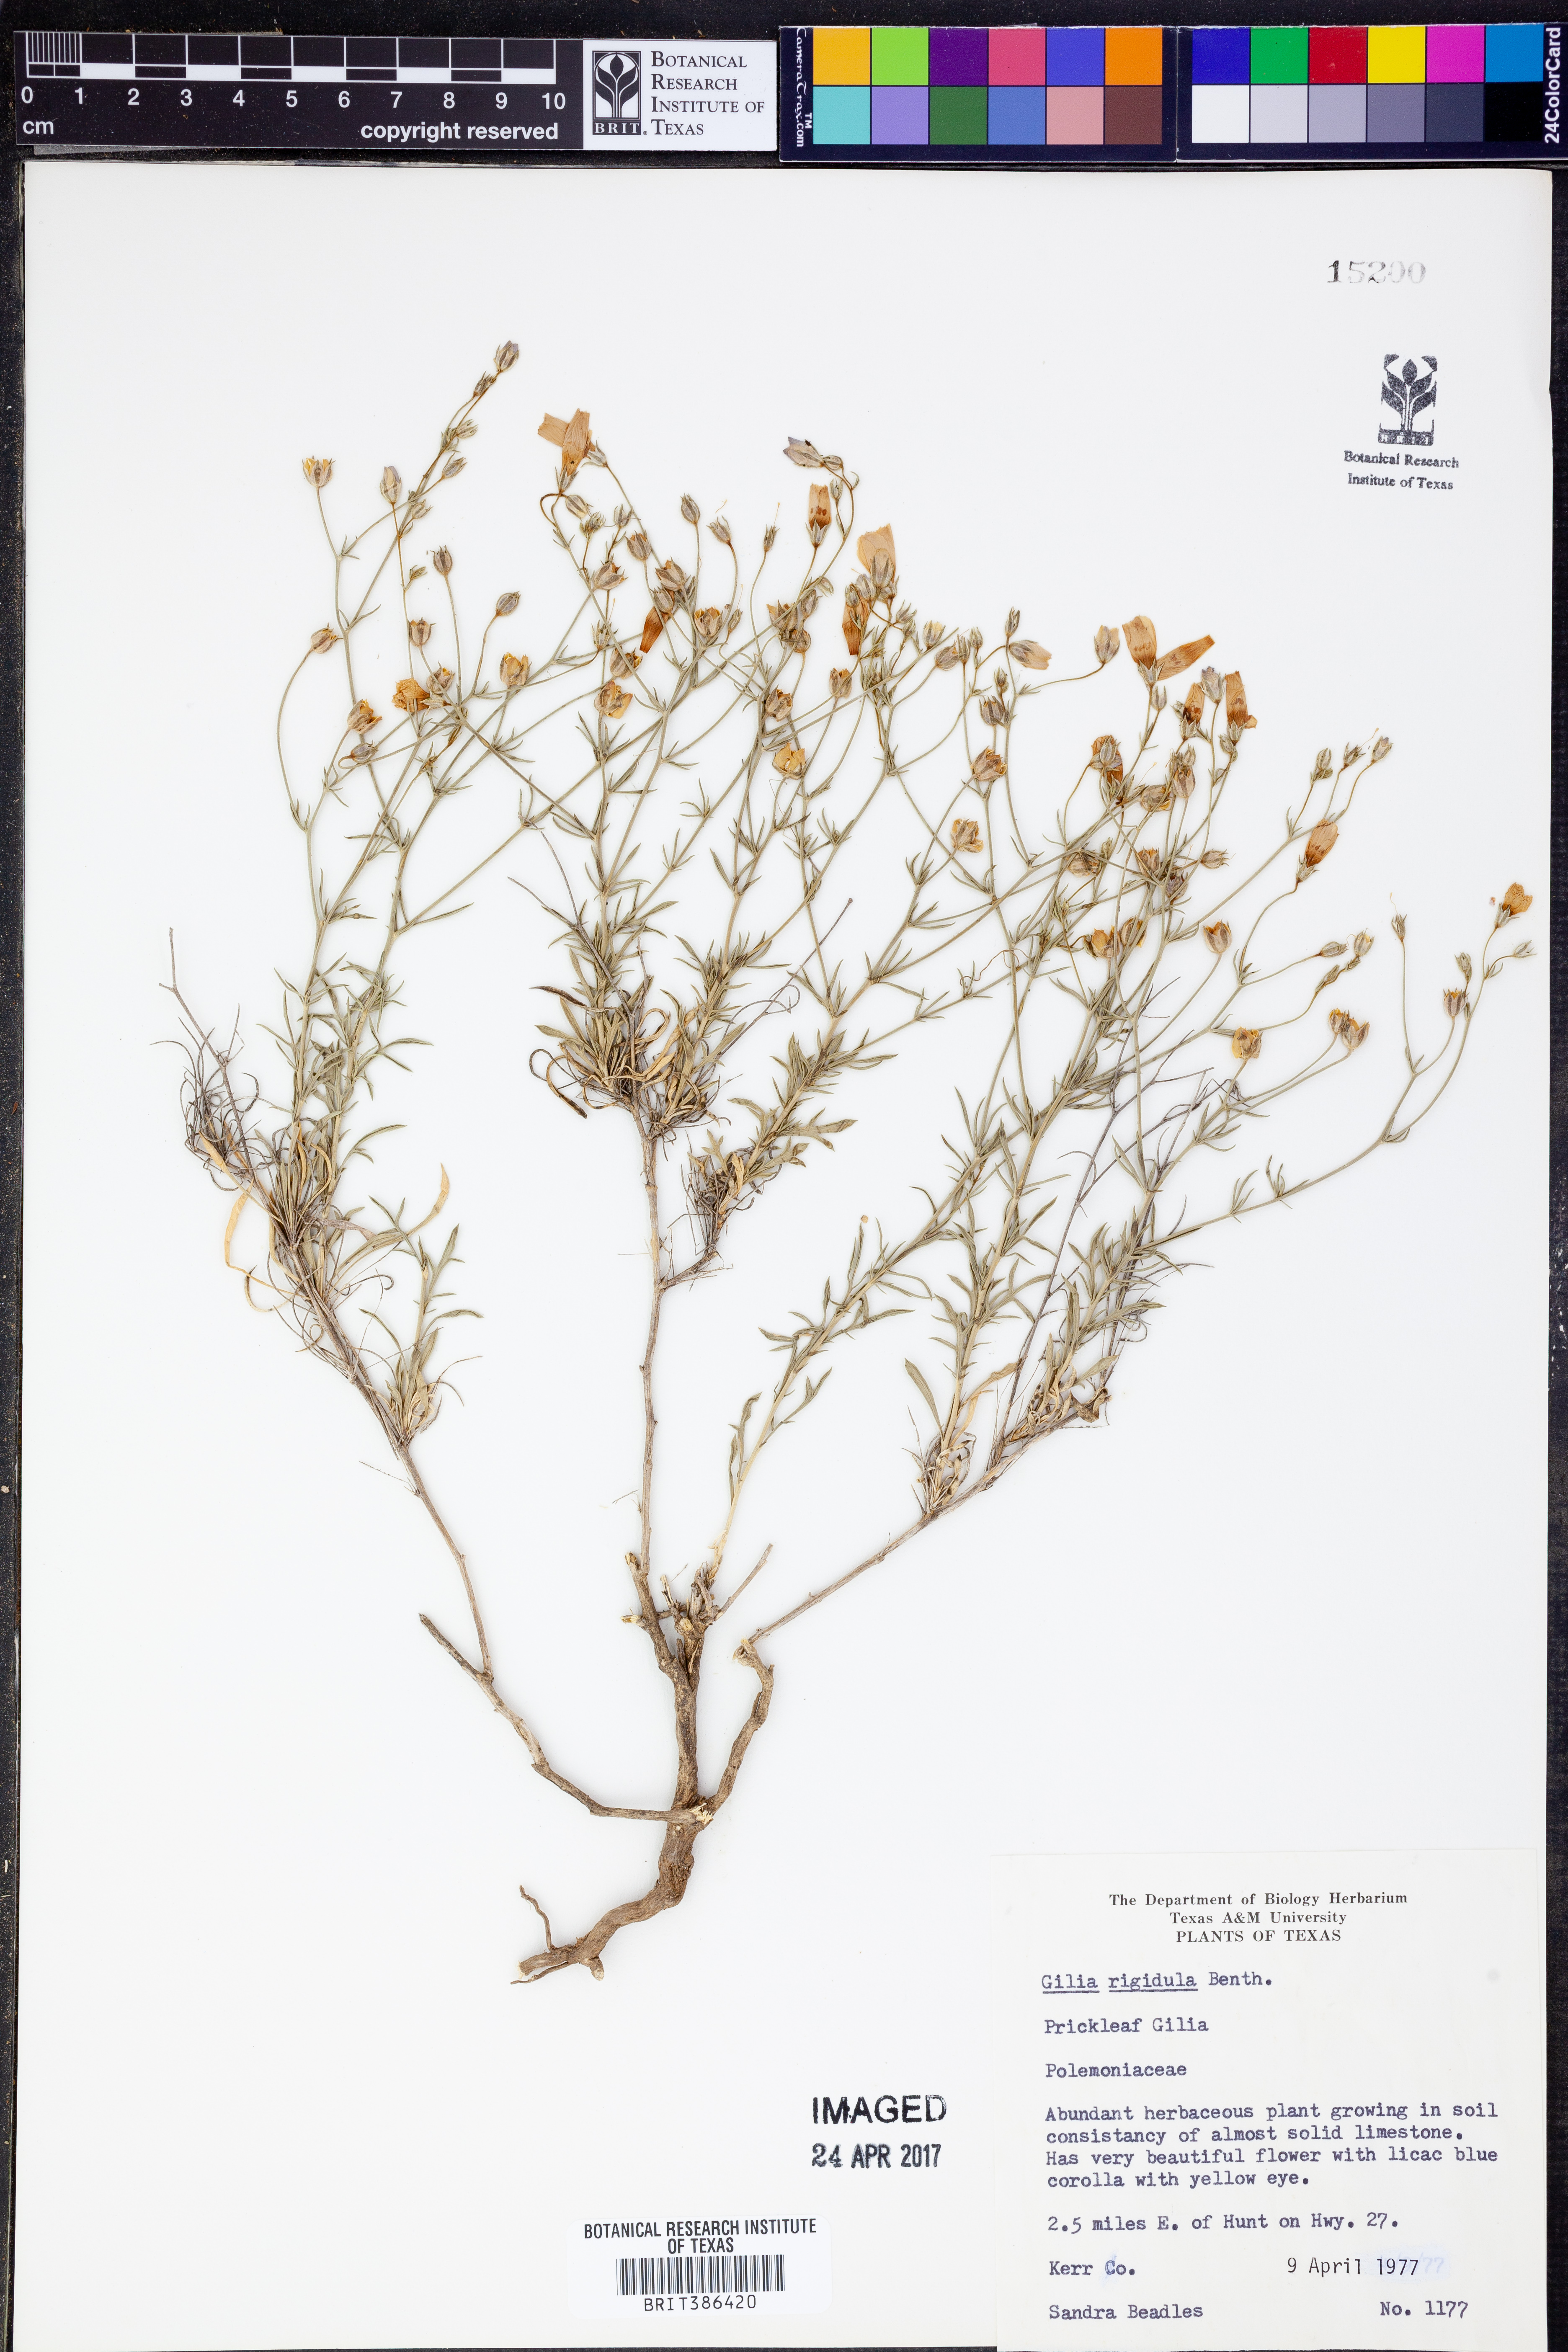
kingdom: Plantae
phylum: Tracheophyta
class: Magnoliopsida
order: Ericales
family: Polemoniaceae
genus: Giliastrum
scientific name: Giliastrum rigidulum
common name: Bluebowls
